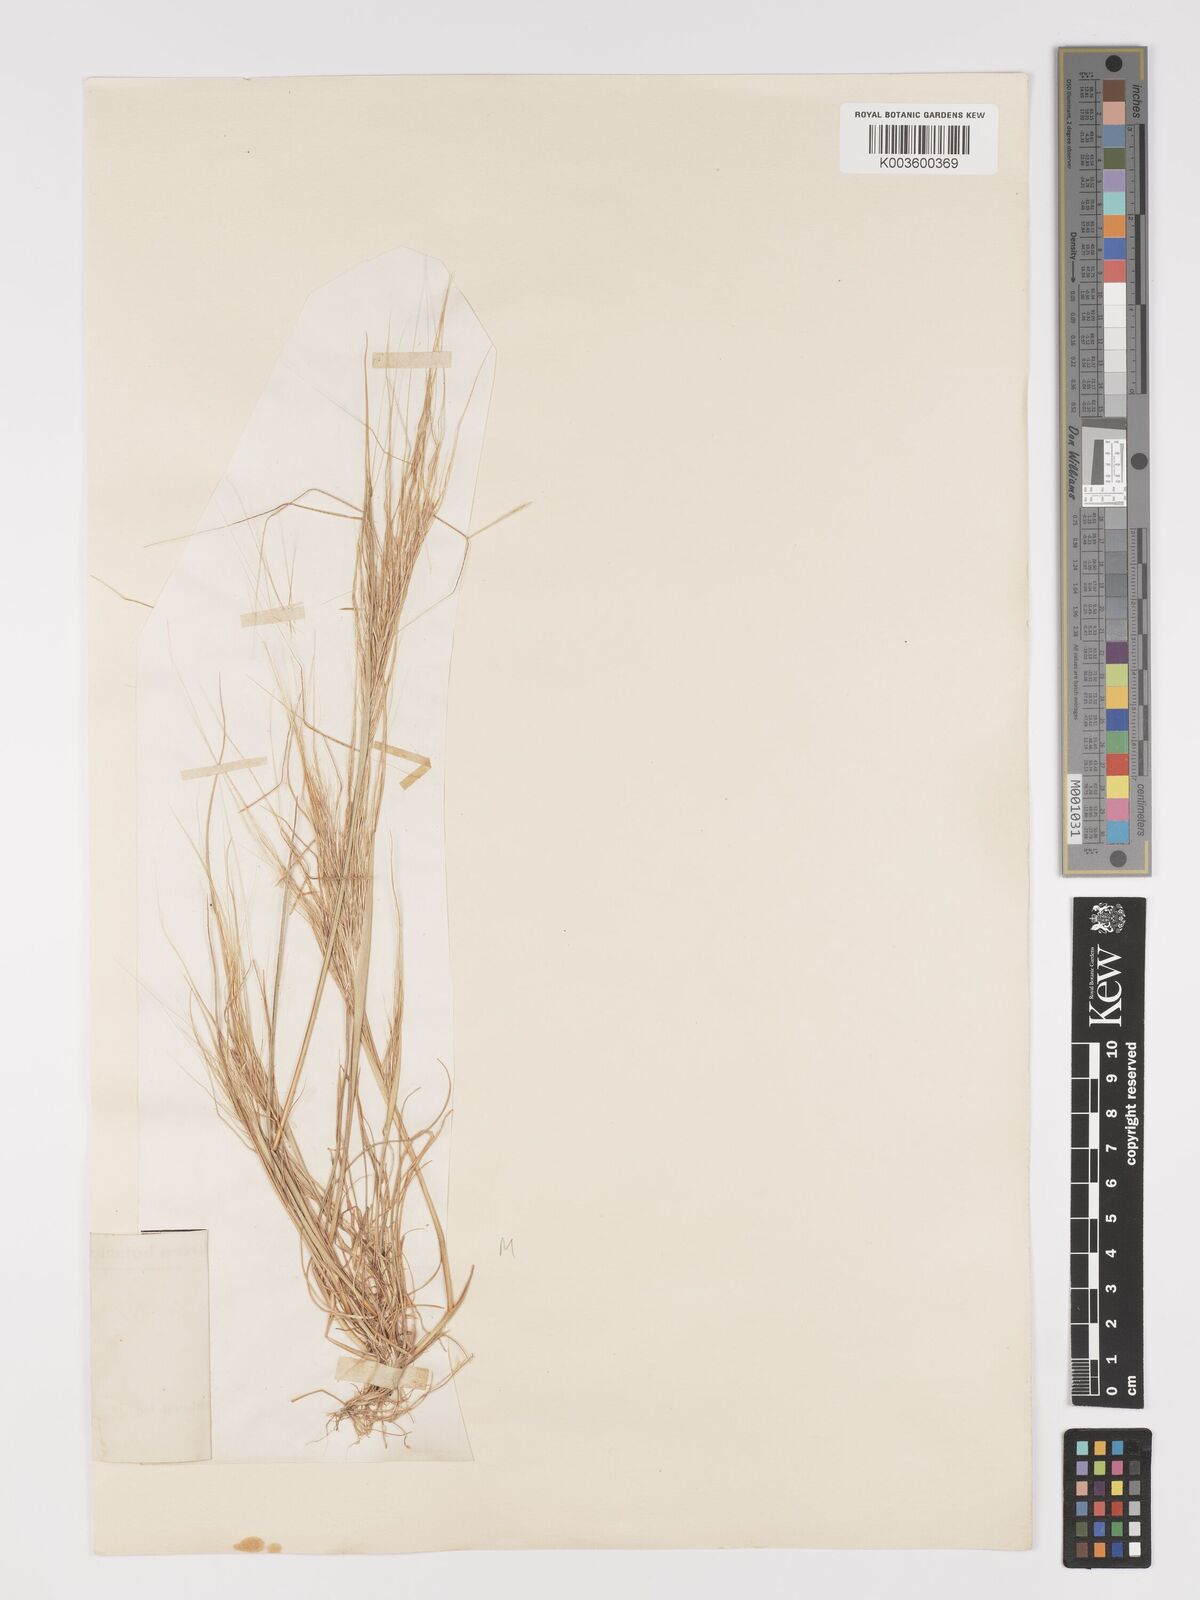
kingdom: Plantae
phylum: Tracheophyta
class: Liliopsida
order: Poales
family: Poaceae
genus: Stipellula
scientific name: Stipellula capensis
